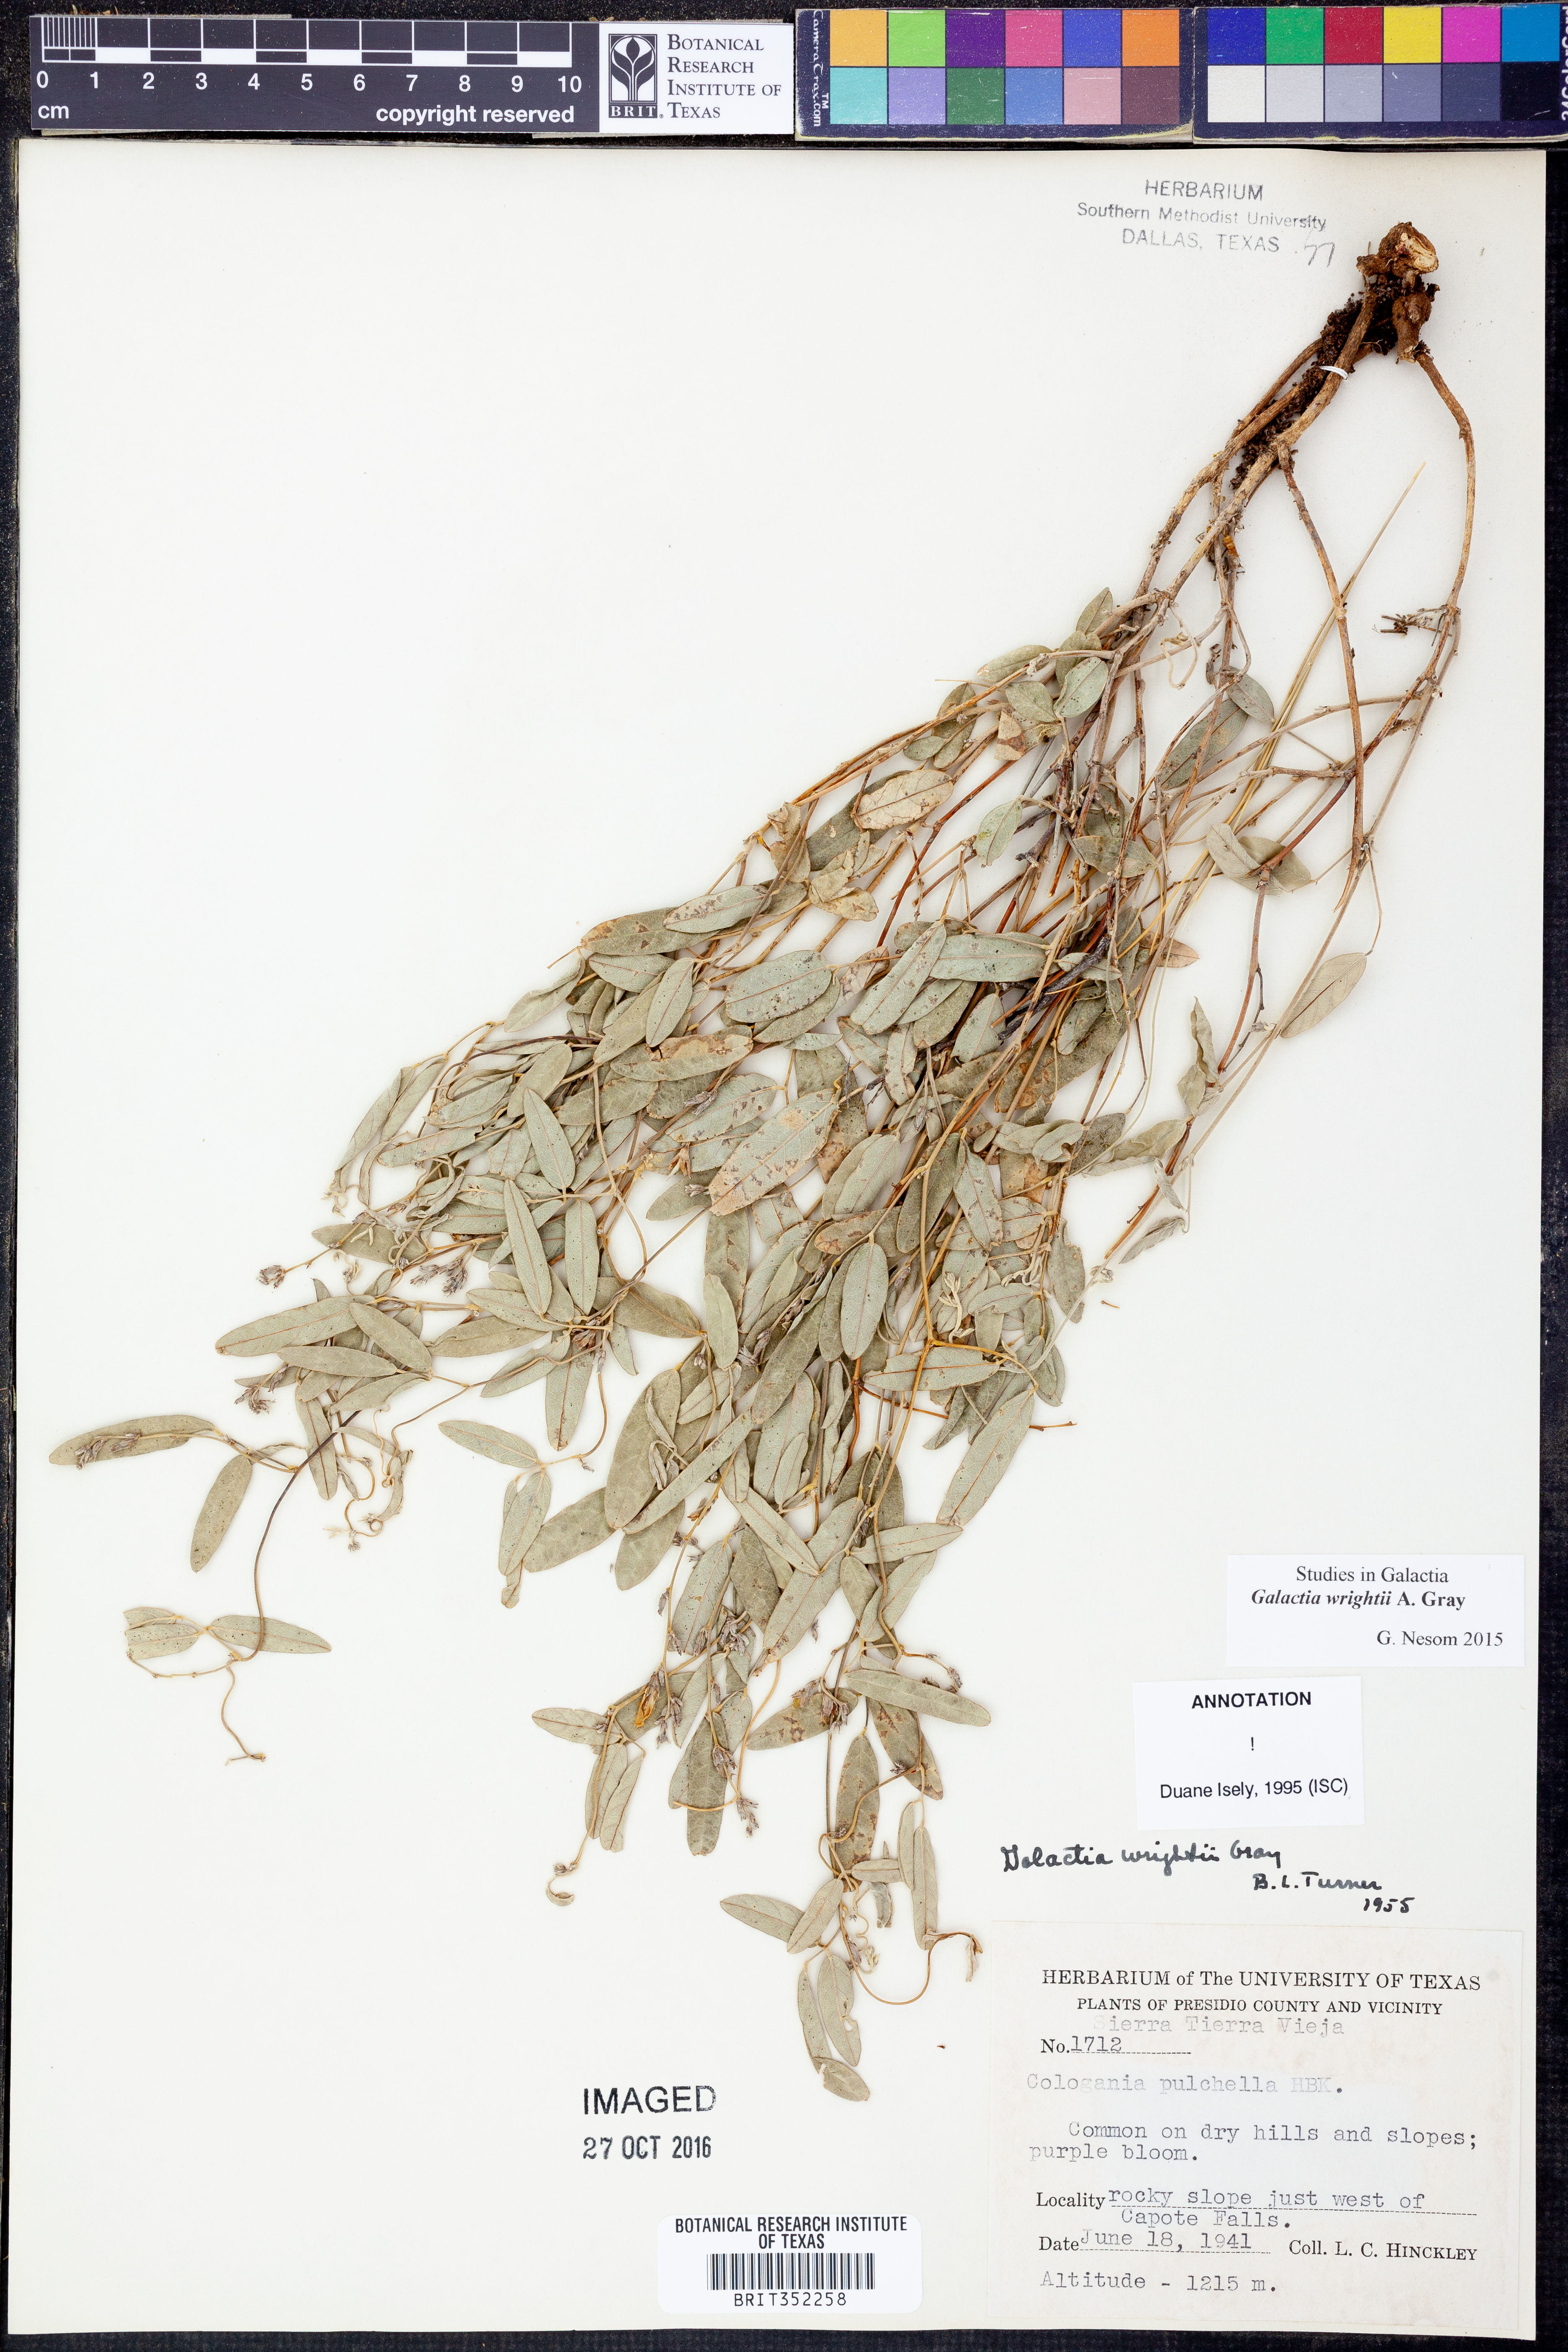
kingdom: Plantae
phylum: Tracheophyta
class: Magnoliopsida
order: Fabales
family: Fabaceae
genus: Galactia
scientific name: Galactia wrightii
